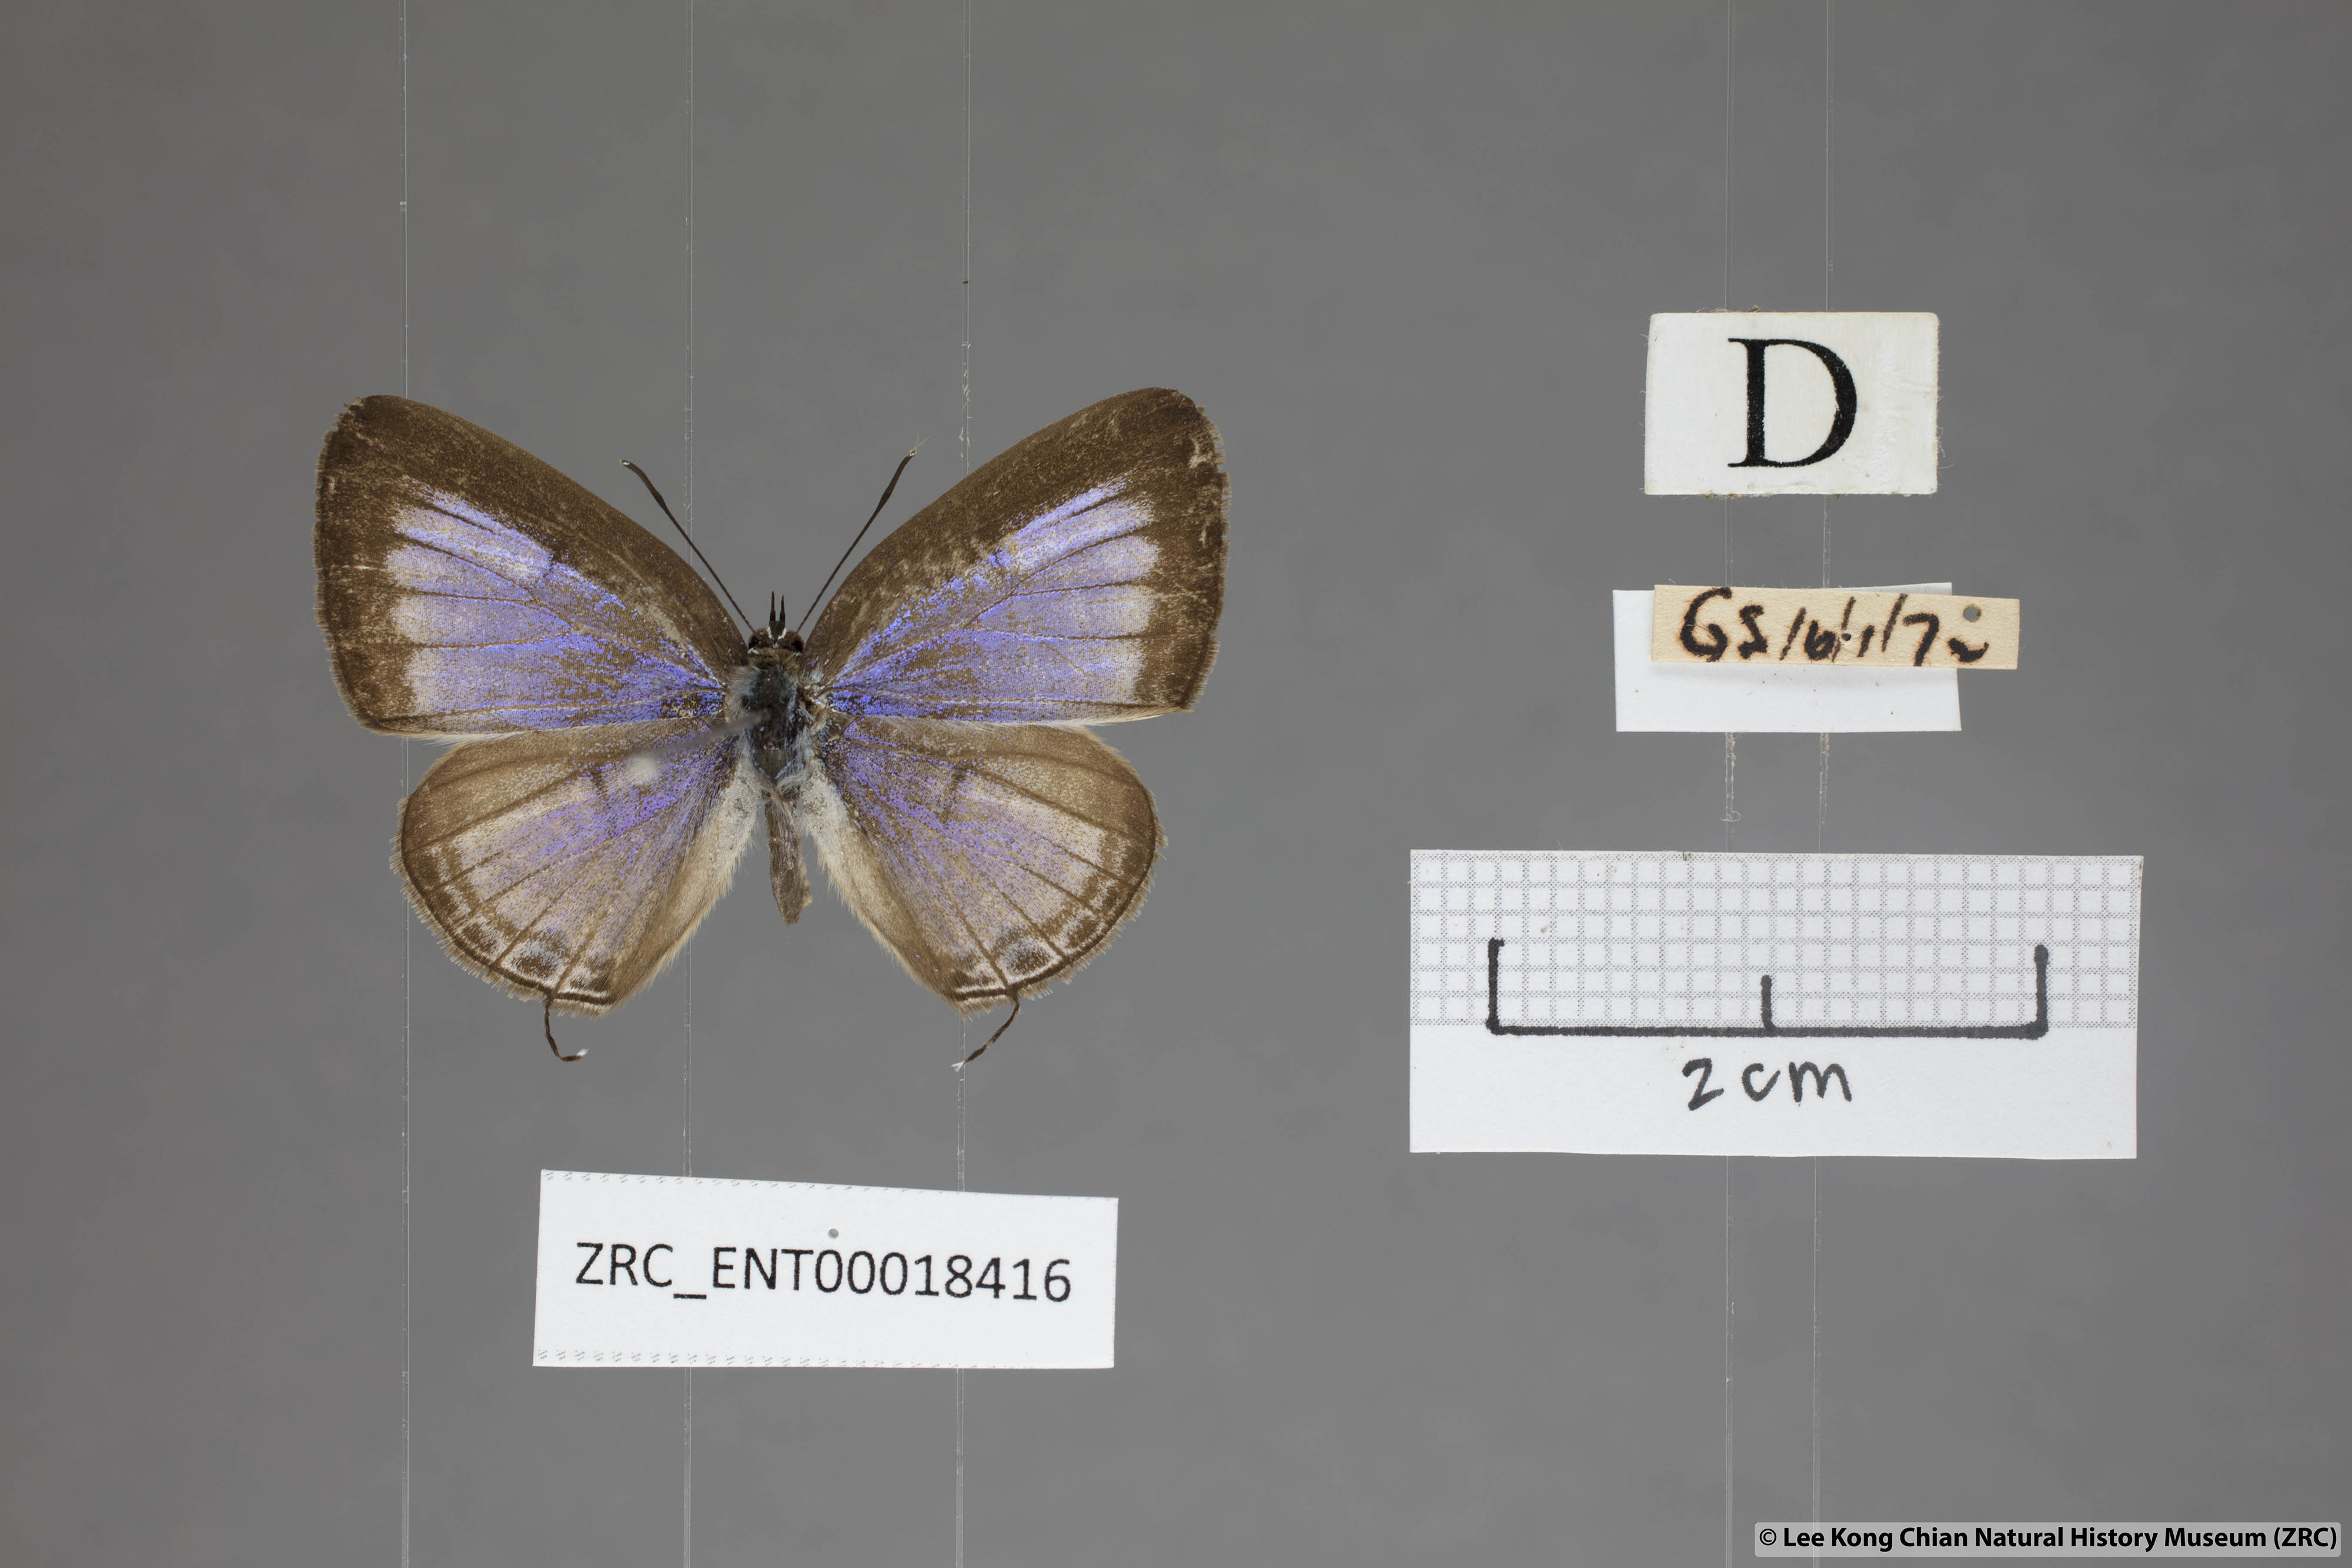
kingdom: Animalia
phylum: Arthropoda
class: Insecta
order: Lepidoptera
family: Lycaenidae
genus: Nacaduba
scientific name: Nacaduba pactolus
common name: Large fourline blue
